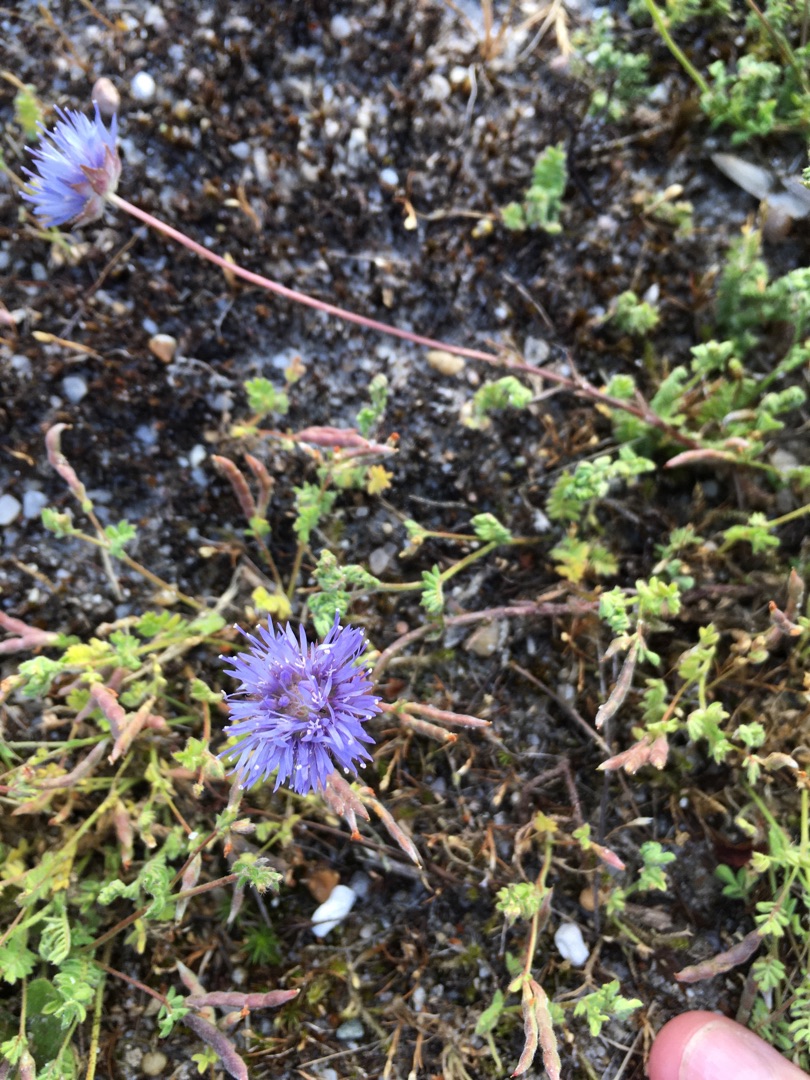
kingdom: Plantae
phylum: Tracheophyta
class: Magnoliopsida
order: Asterales
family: Campanulaceae
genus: Jasione
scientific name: Jasione montana
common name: Blåmunke
